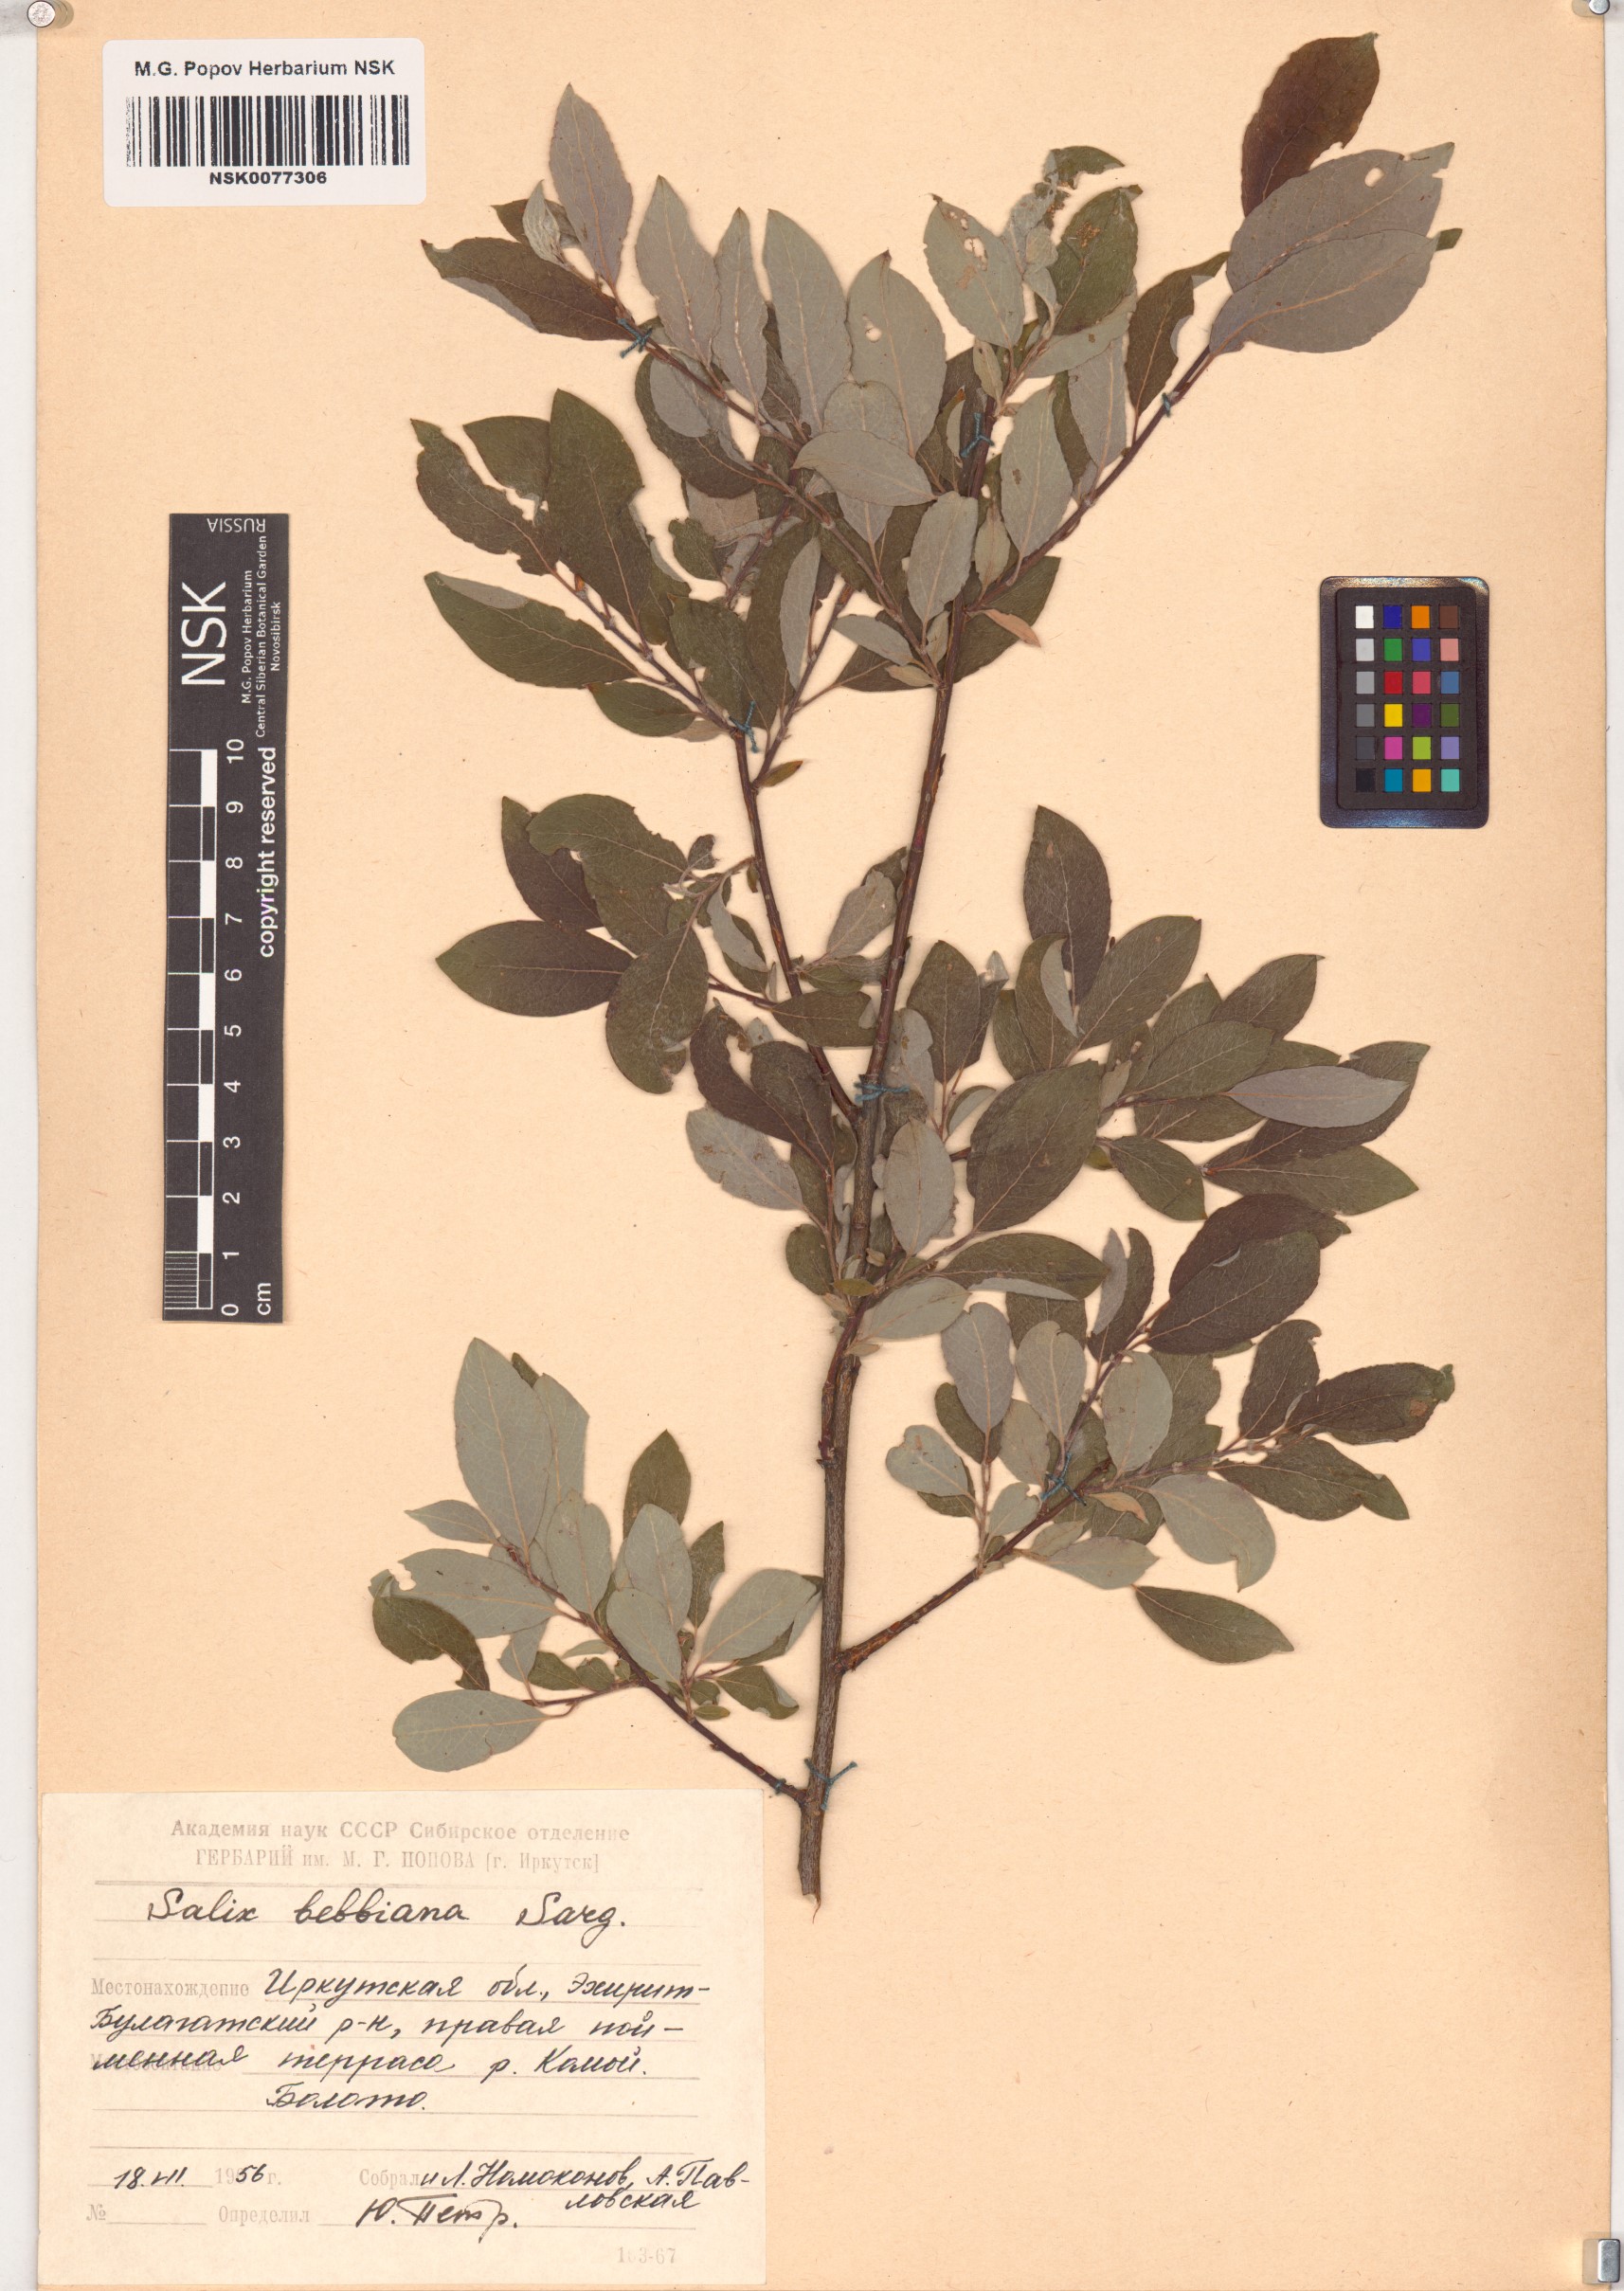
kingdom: Plantae
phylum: Tracheophyta
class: Magnoliopsida
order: Malpighiales
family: Salicaceae
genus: Salix
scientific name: Salix bebbiana
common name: Bebb's willow
